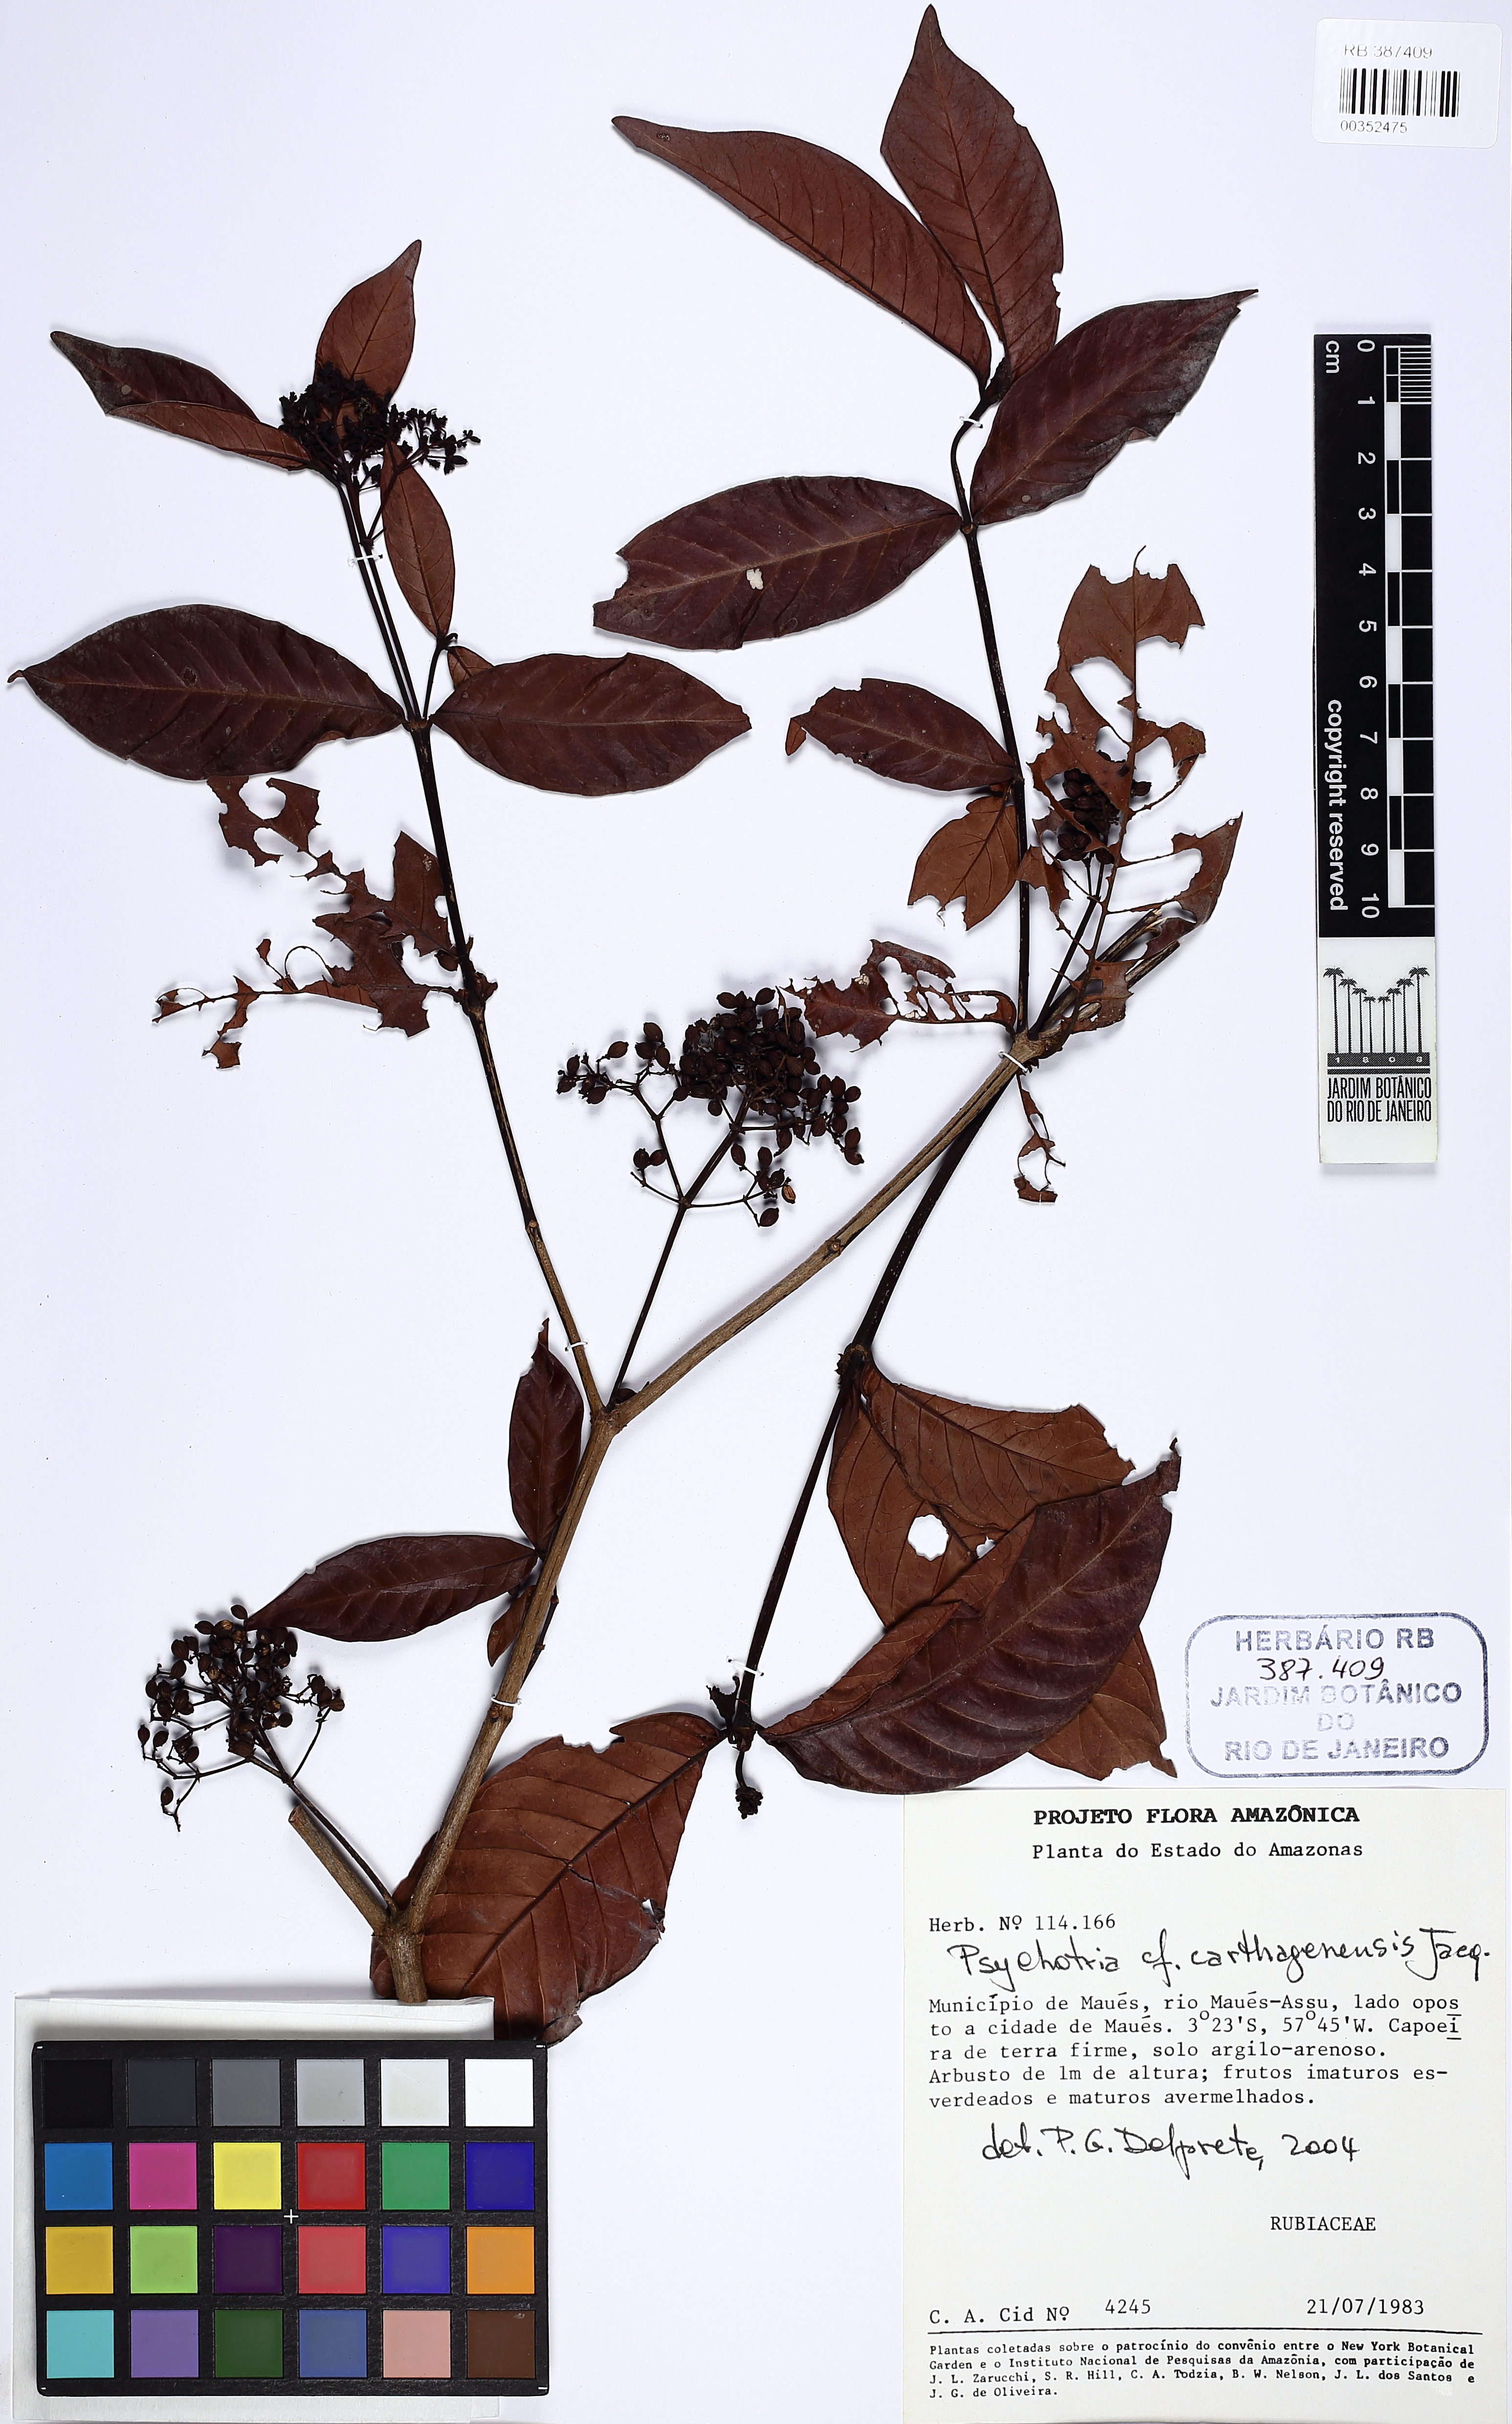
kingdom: Plantae
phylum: Tracheophyta
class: Magnoliopsida
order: Gentianales
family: Rubiaceae
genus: Psychotria
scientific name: Psychotria carthagenensis
